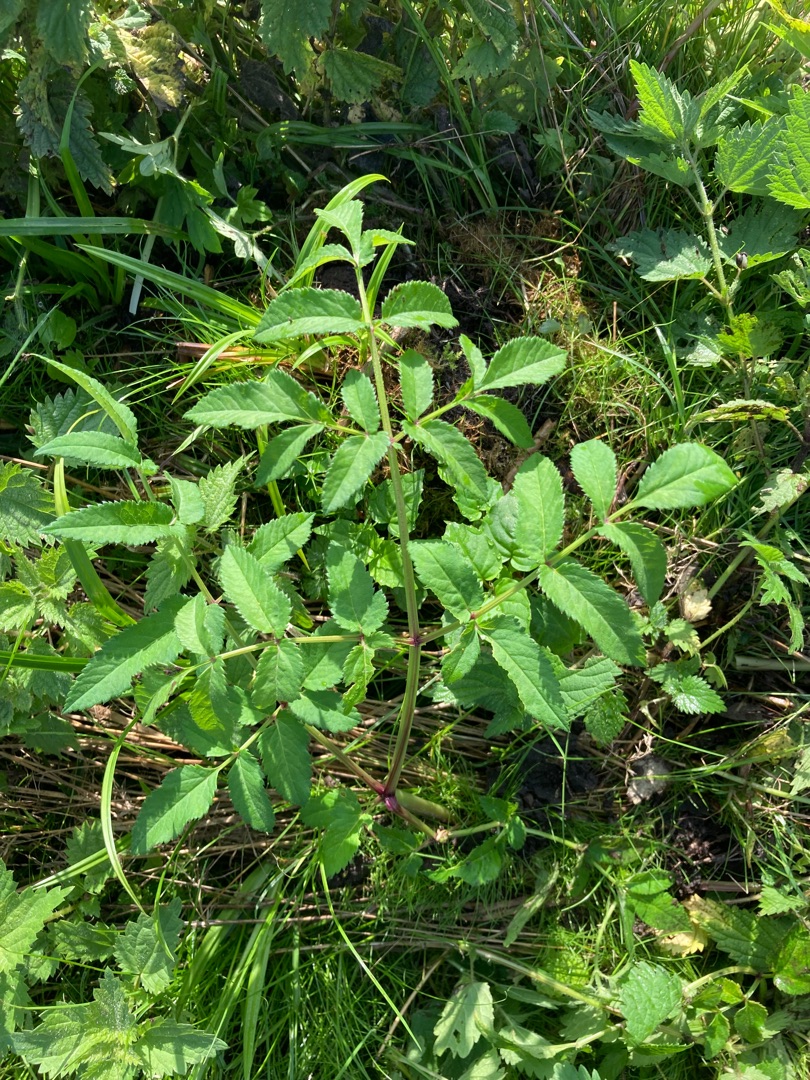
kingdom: Plantae
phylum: Tracheophyta
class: Magnoliopsida
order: Apiales
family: Apiaceae
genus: Angelica
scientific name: Angelica sylvestris
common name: Angelik
